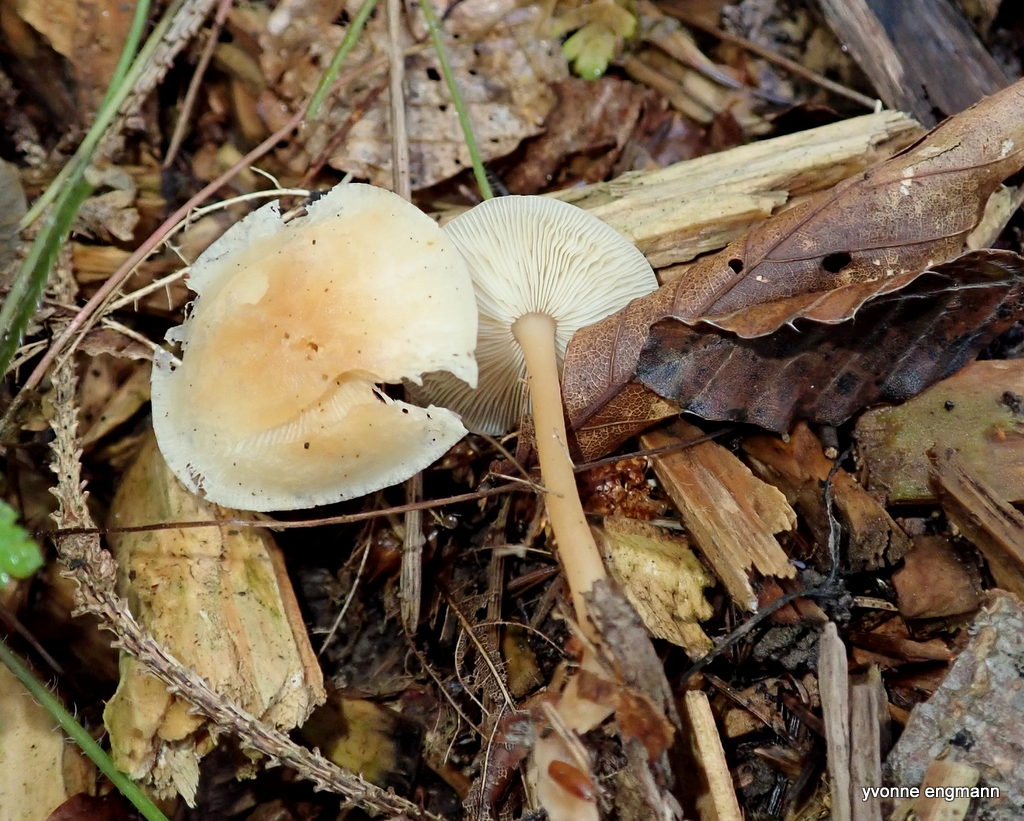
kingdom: Fungi
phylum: Basidiomycota
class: Agaricomycetes
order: Agaricales
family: Omphalotaceae
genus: Gymnopus
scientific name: Gymnopus dryophilus
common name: løv-fladhat
